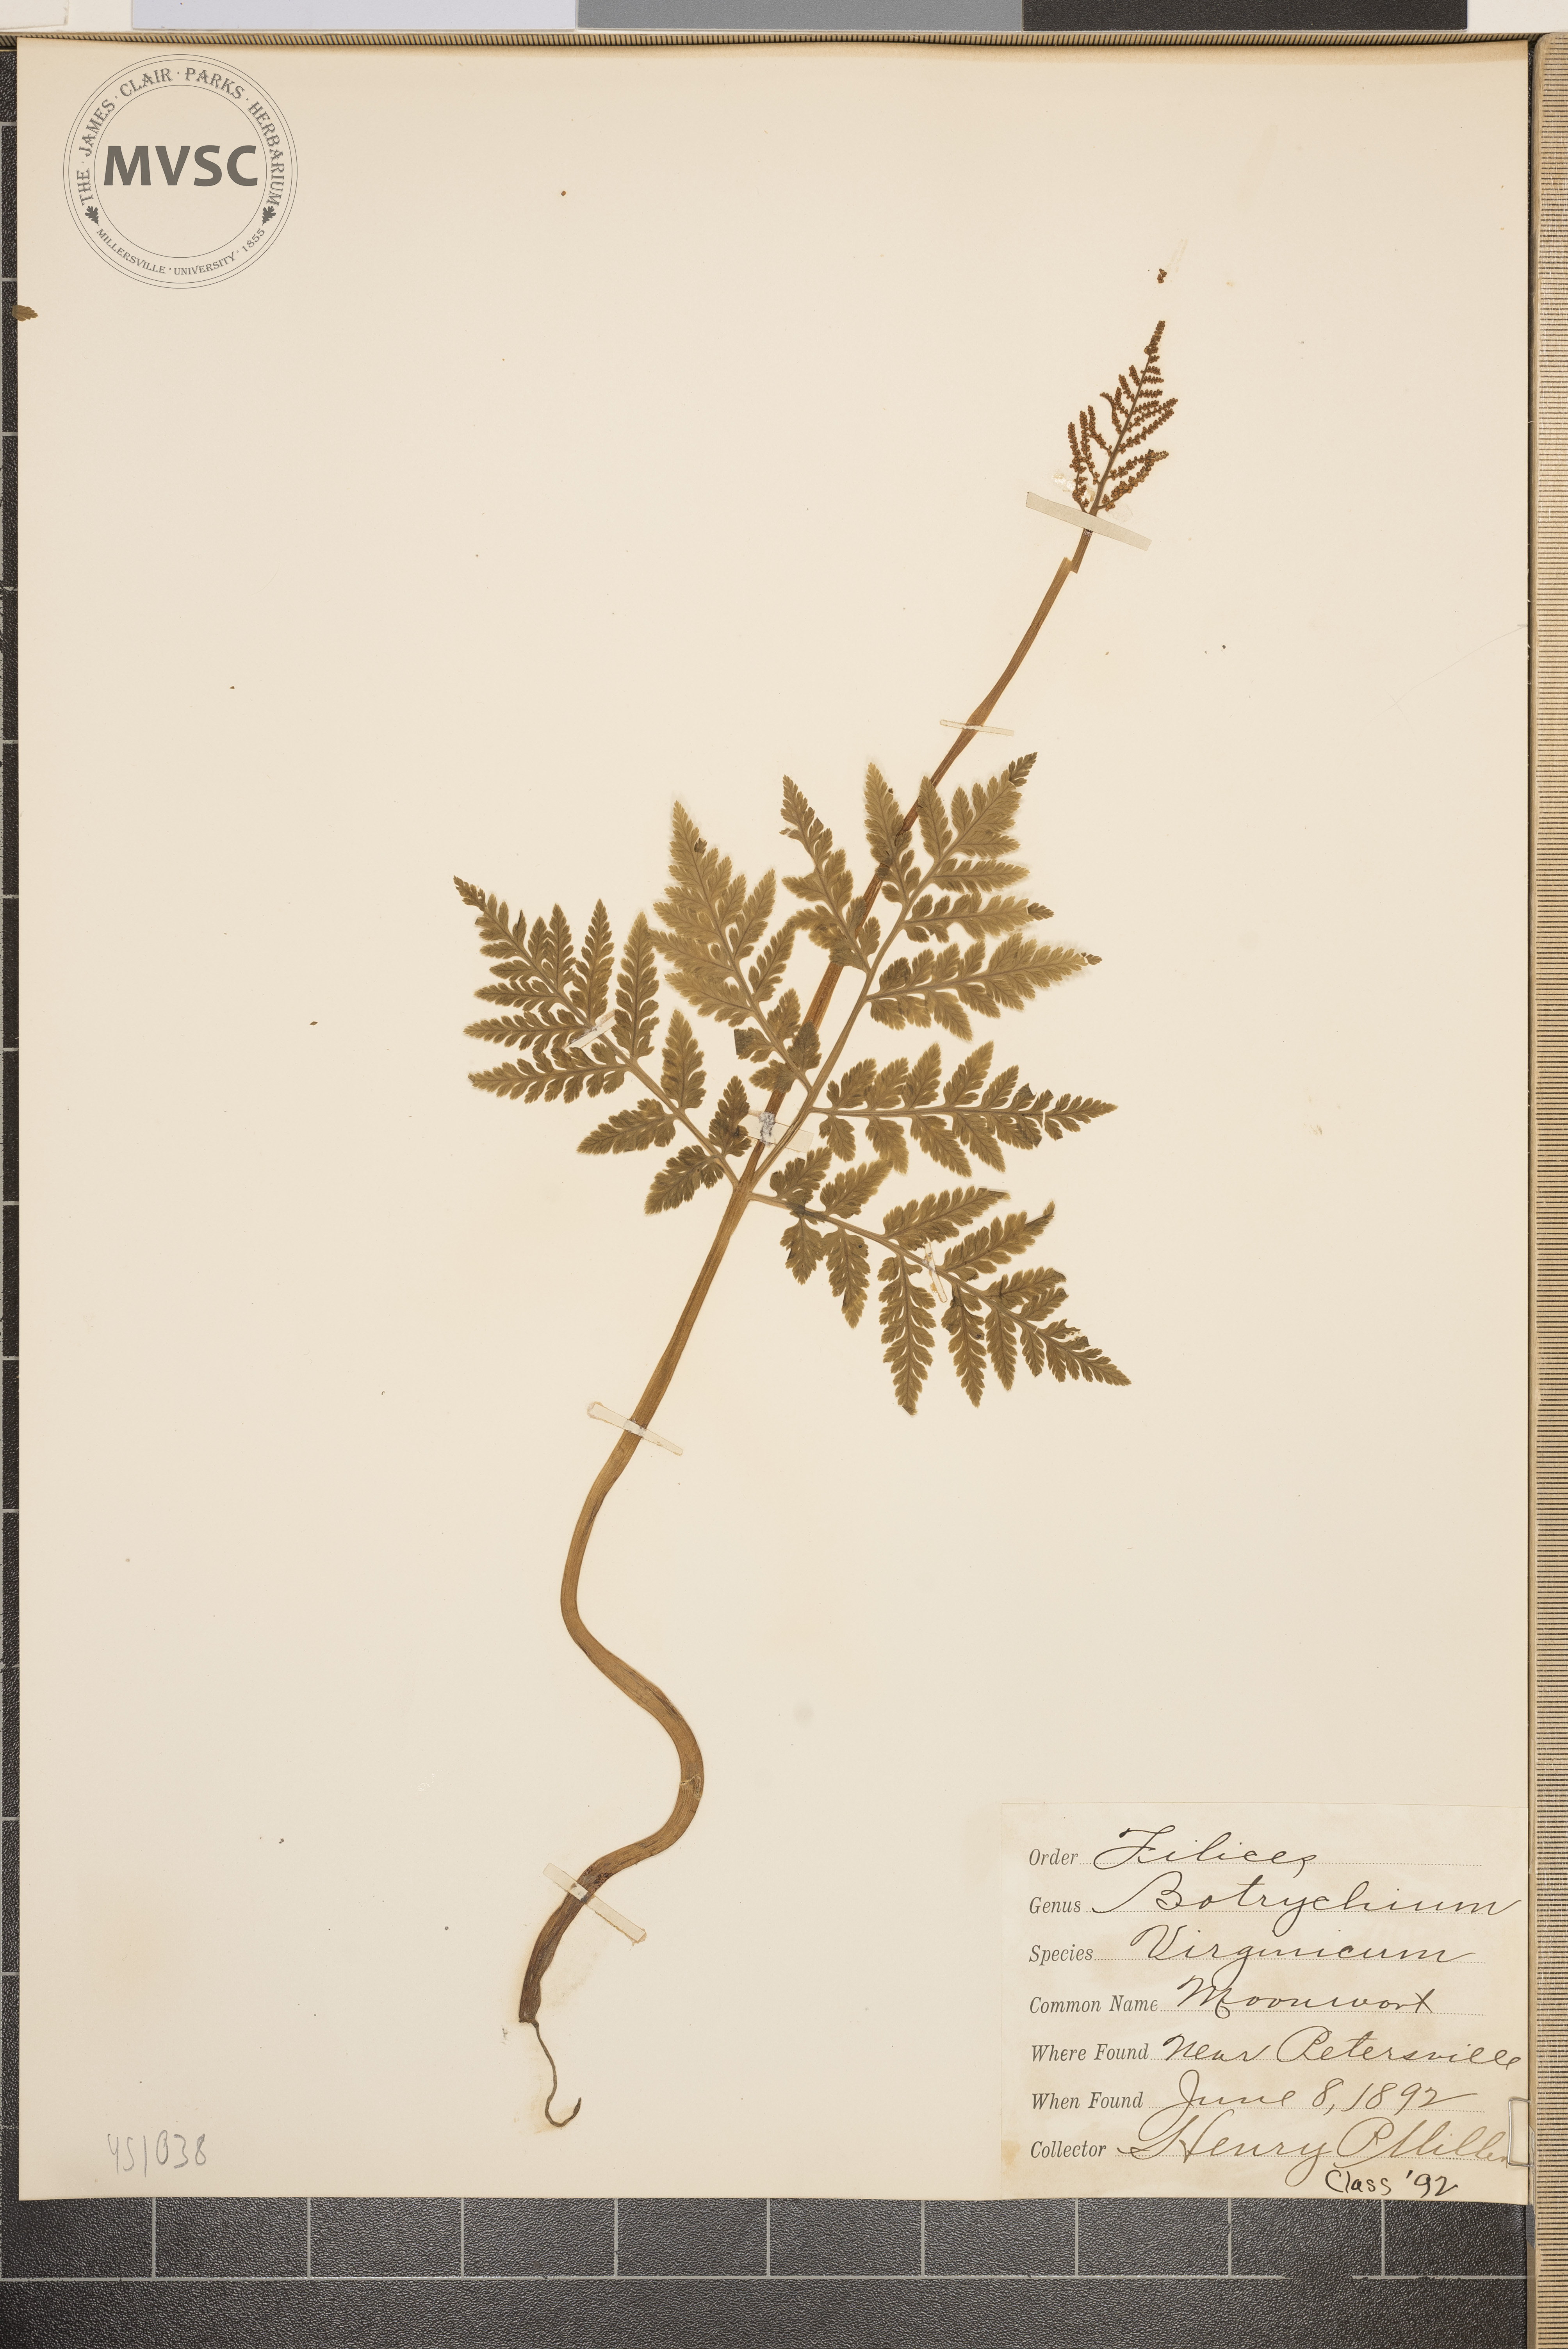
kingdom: Plantae
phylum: Tracheophyta
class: Polypodiopsida
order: Ophioglossales
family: Ophioglossaceae
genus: Botrychium
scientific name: Botrychium virginianum
